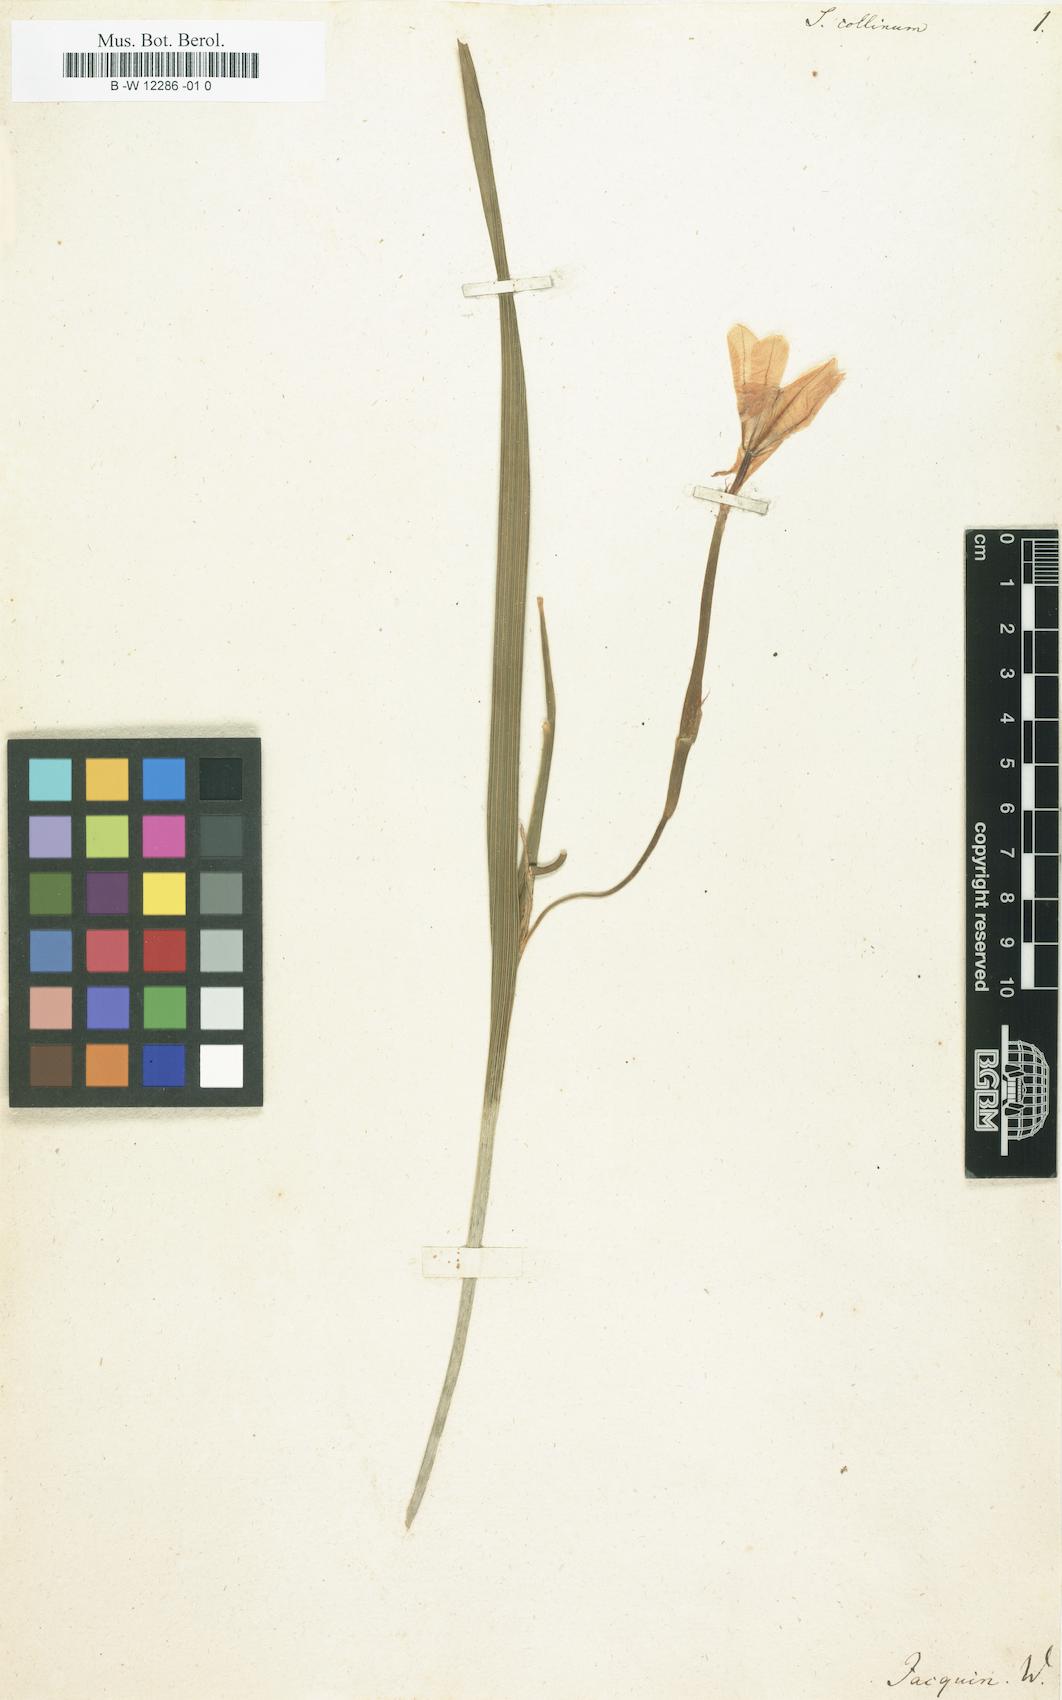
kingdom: Plantae
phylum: Tracheophyta
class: Liliopsida
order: Asparagales
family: Iridaceae
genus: Moraea
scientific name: Moraea collina
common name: Cape-tulip
